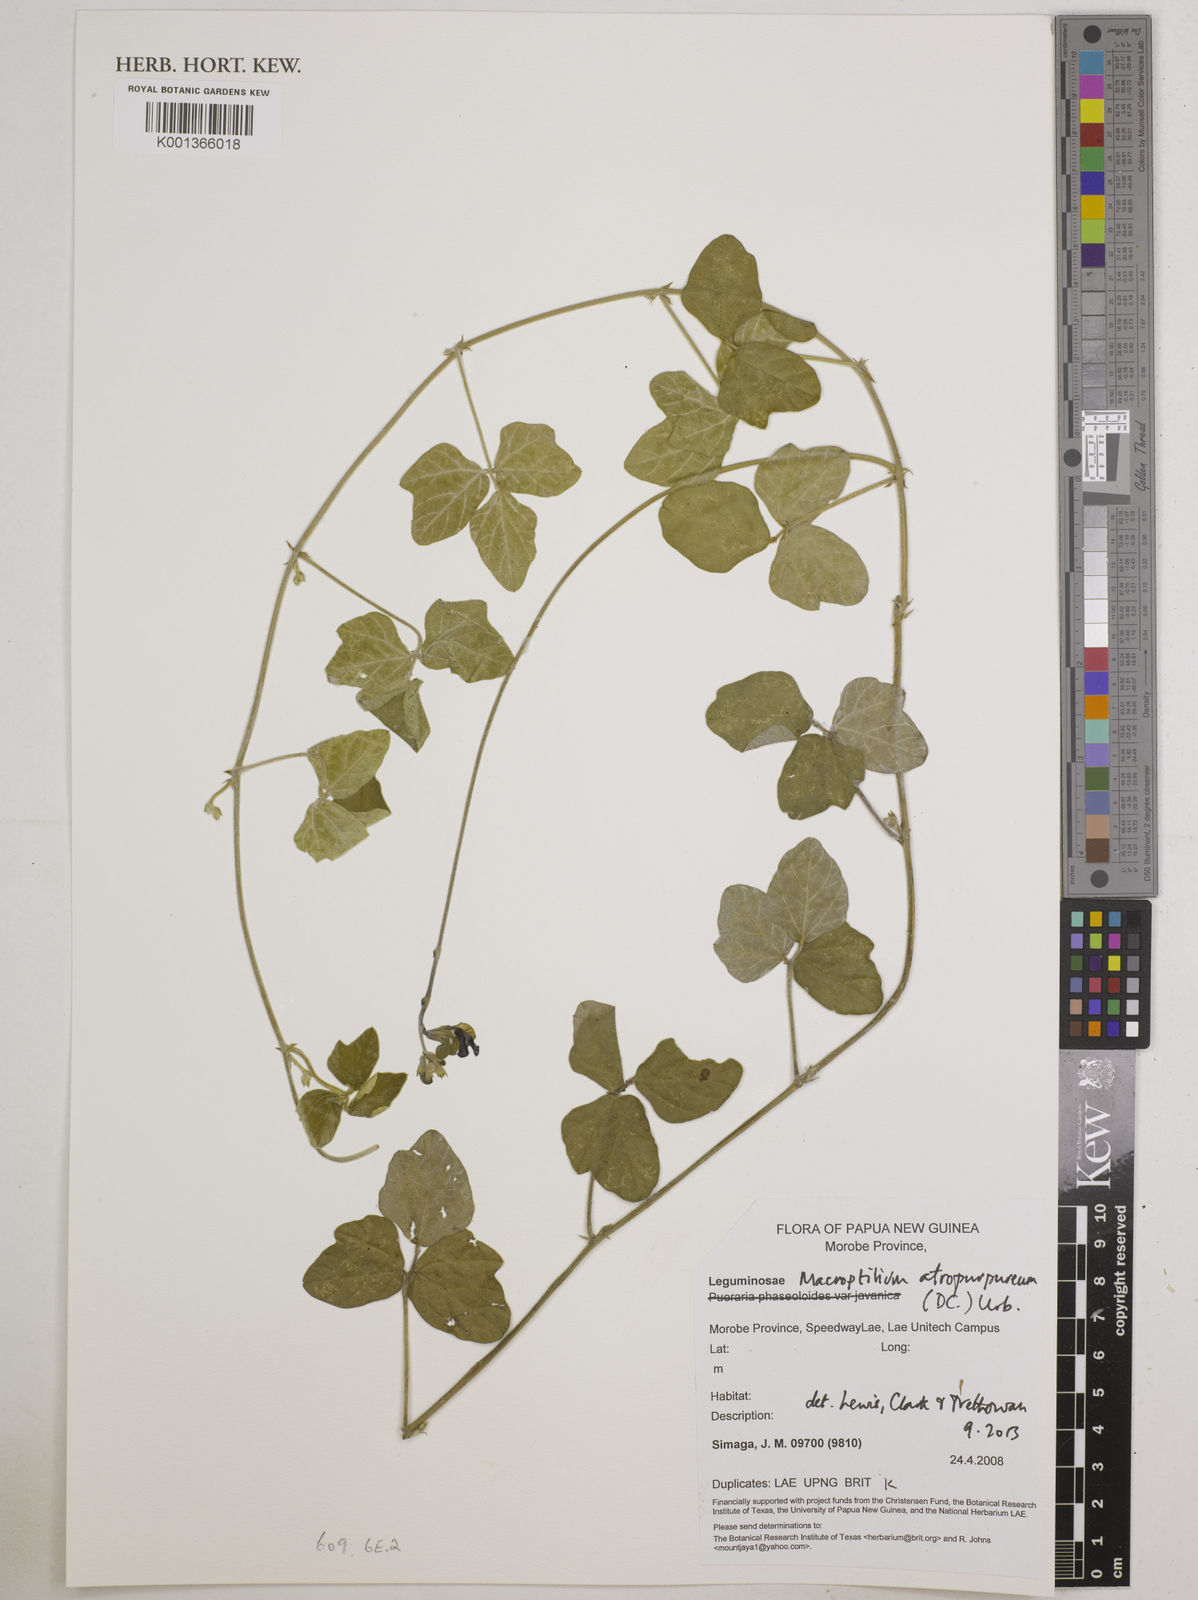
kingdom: Plantae
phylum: Tracheophyta
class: Magnoliopsida
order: Fabales
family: Fabaceae
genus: Macroptilium
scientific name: Macroptilium atropurpureum
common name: Purple bushbean
